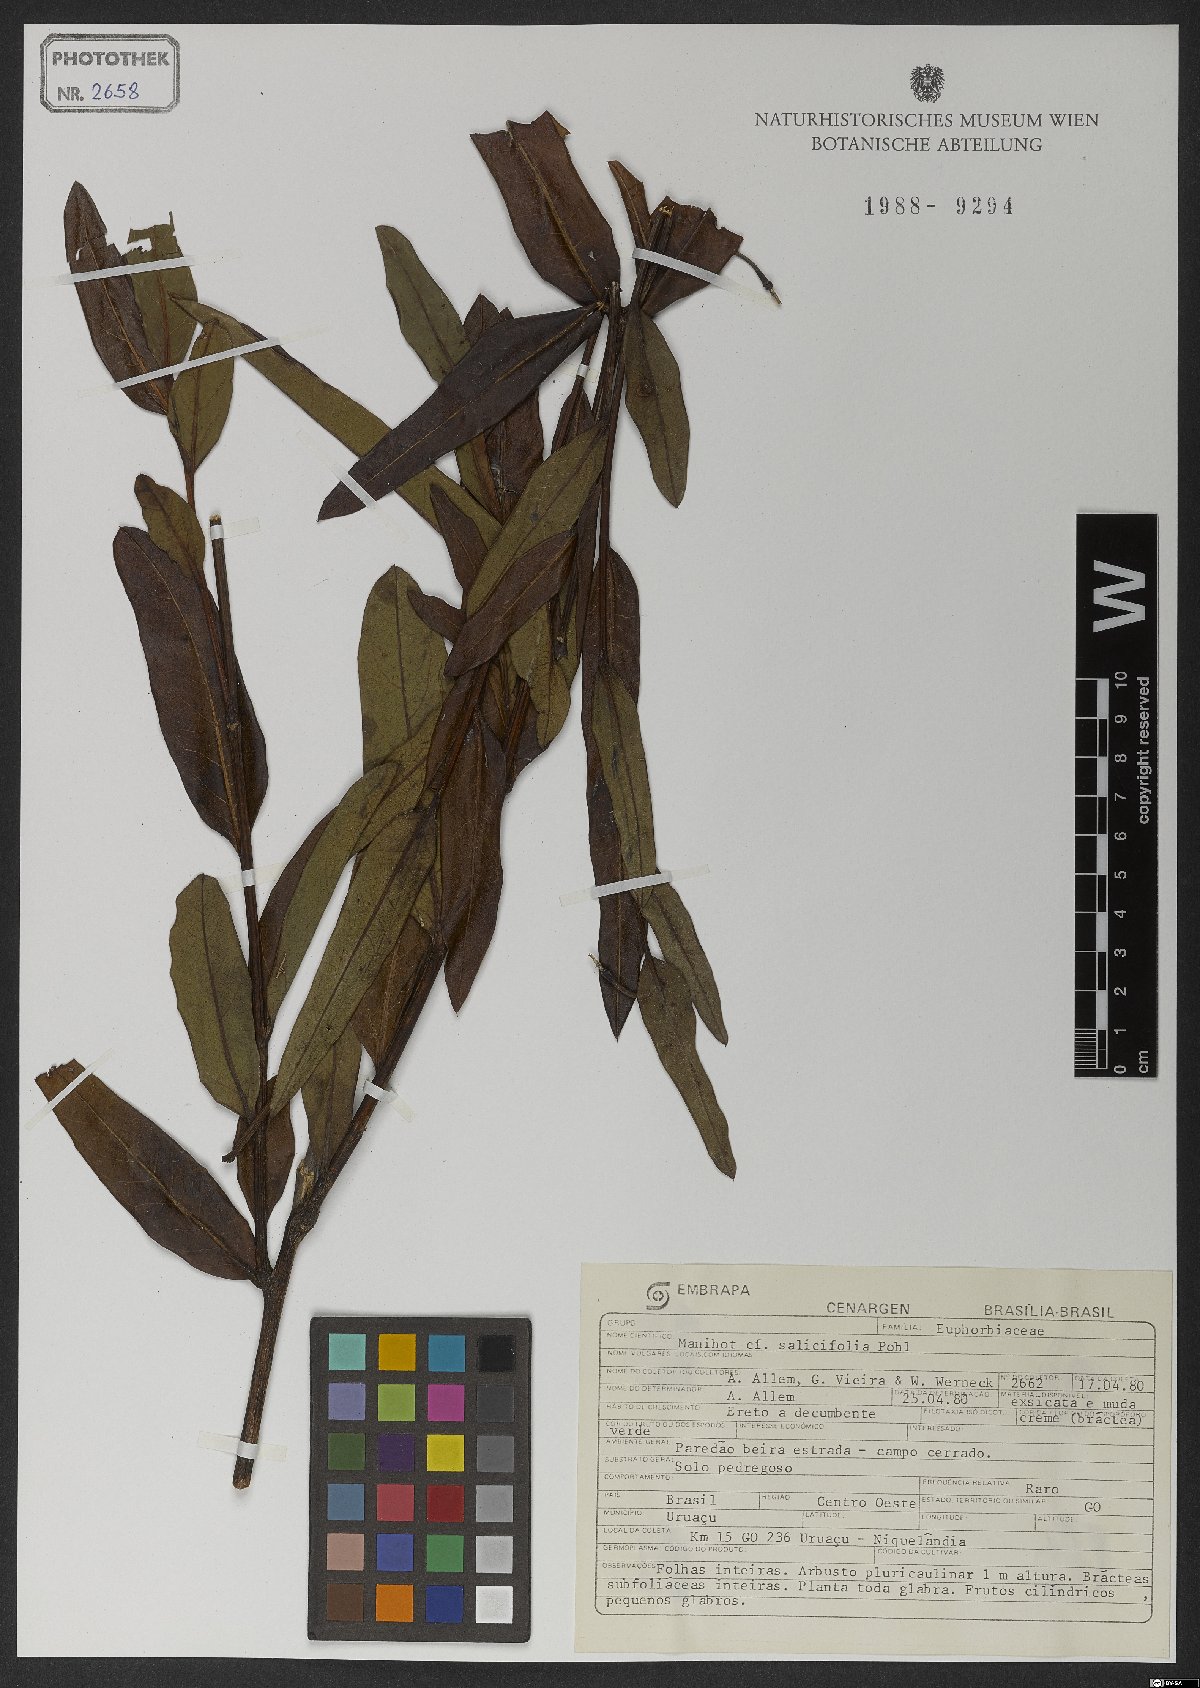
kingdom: Plantae
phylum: Tracheophyta
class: Magnoliopsida
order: Malpighiales
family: Euphorbiaceae
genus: Manihot
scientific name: Manihot salicifolia
